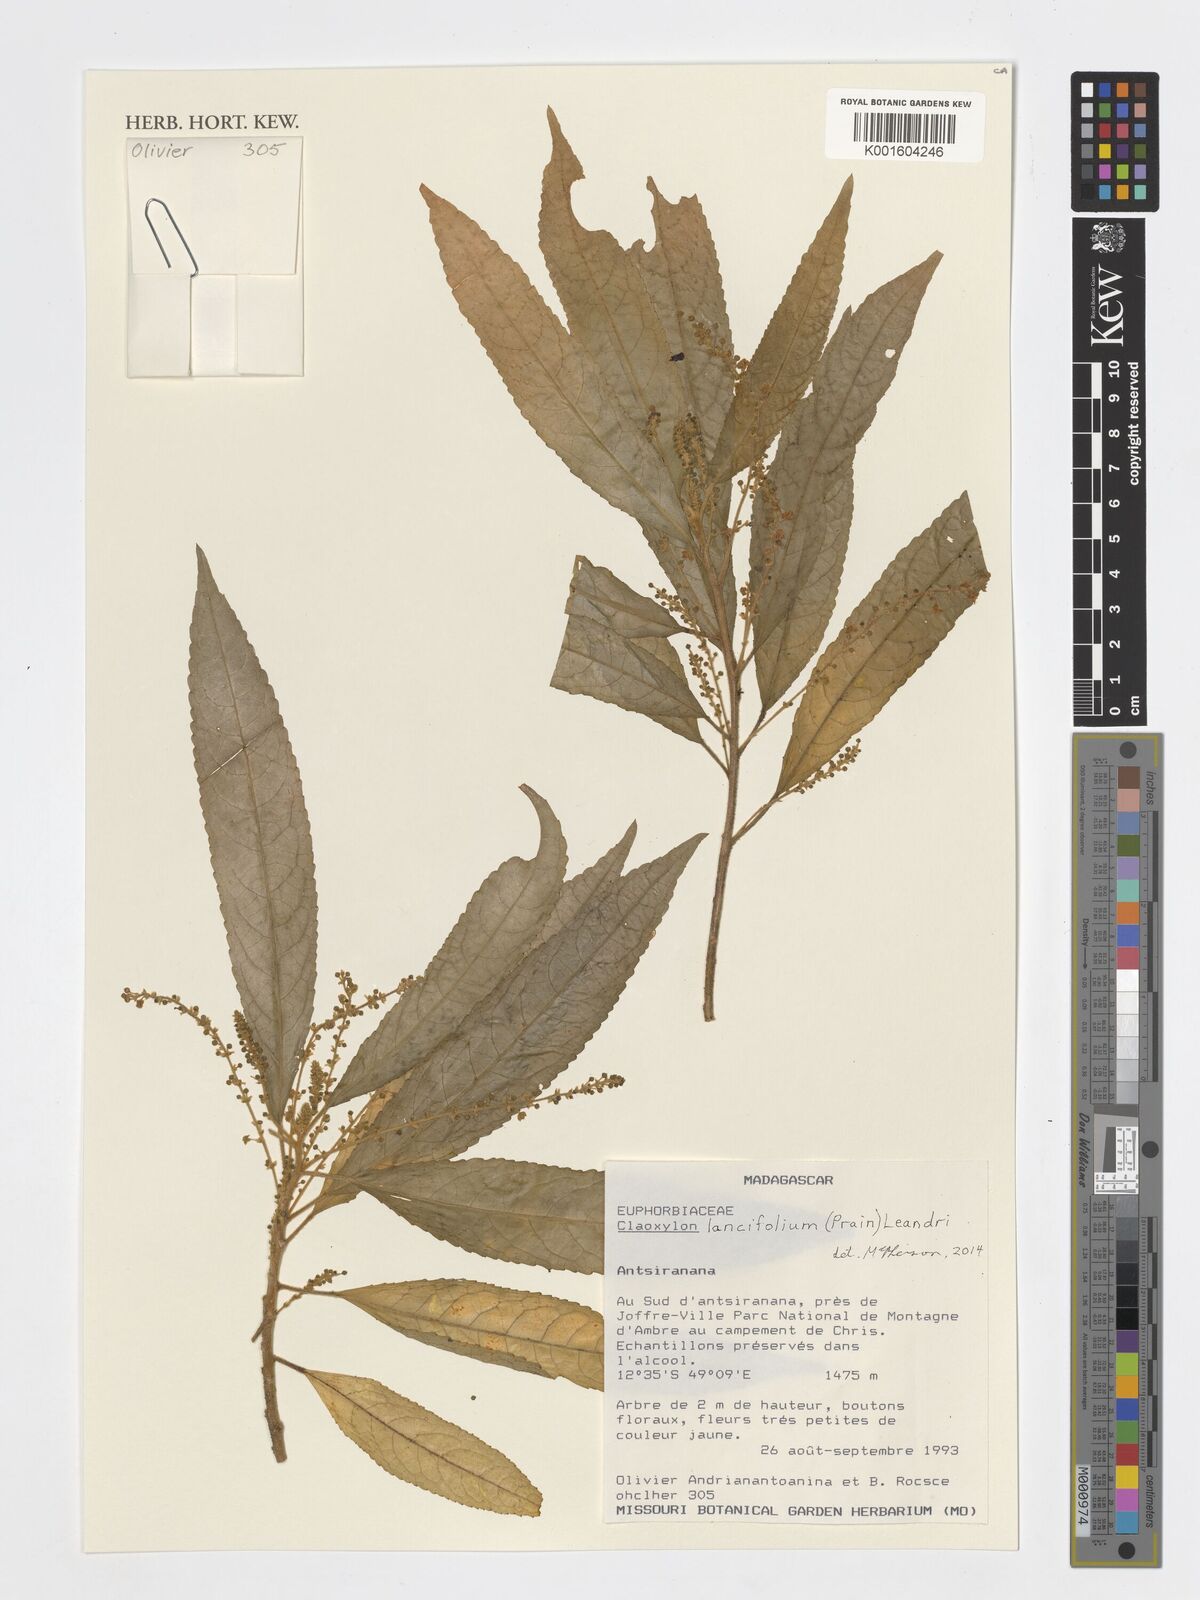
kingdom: Plantae
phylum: Tracheophyta
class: Magnoliopsida
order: Malpighiales
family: Euphorbiaceae
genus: Micrococca
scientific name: Micrococca lancifolia
